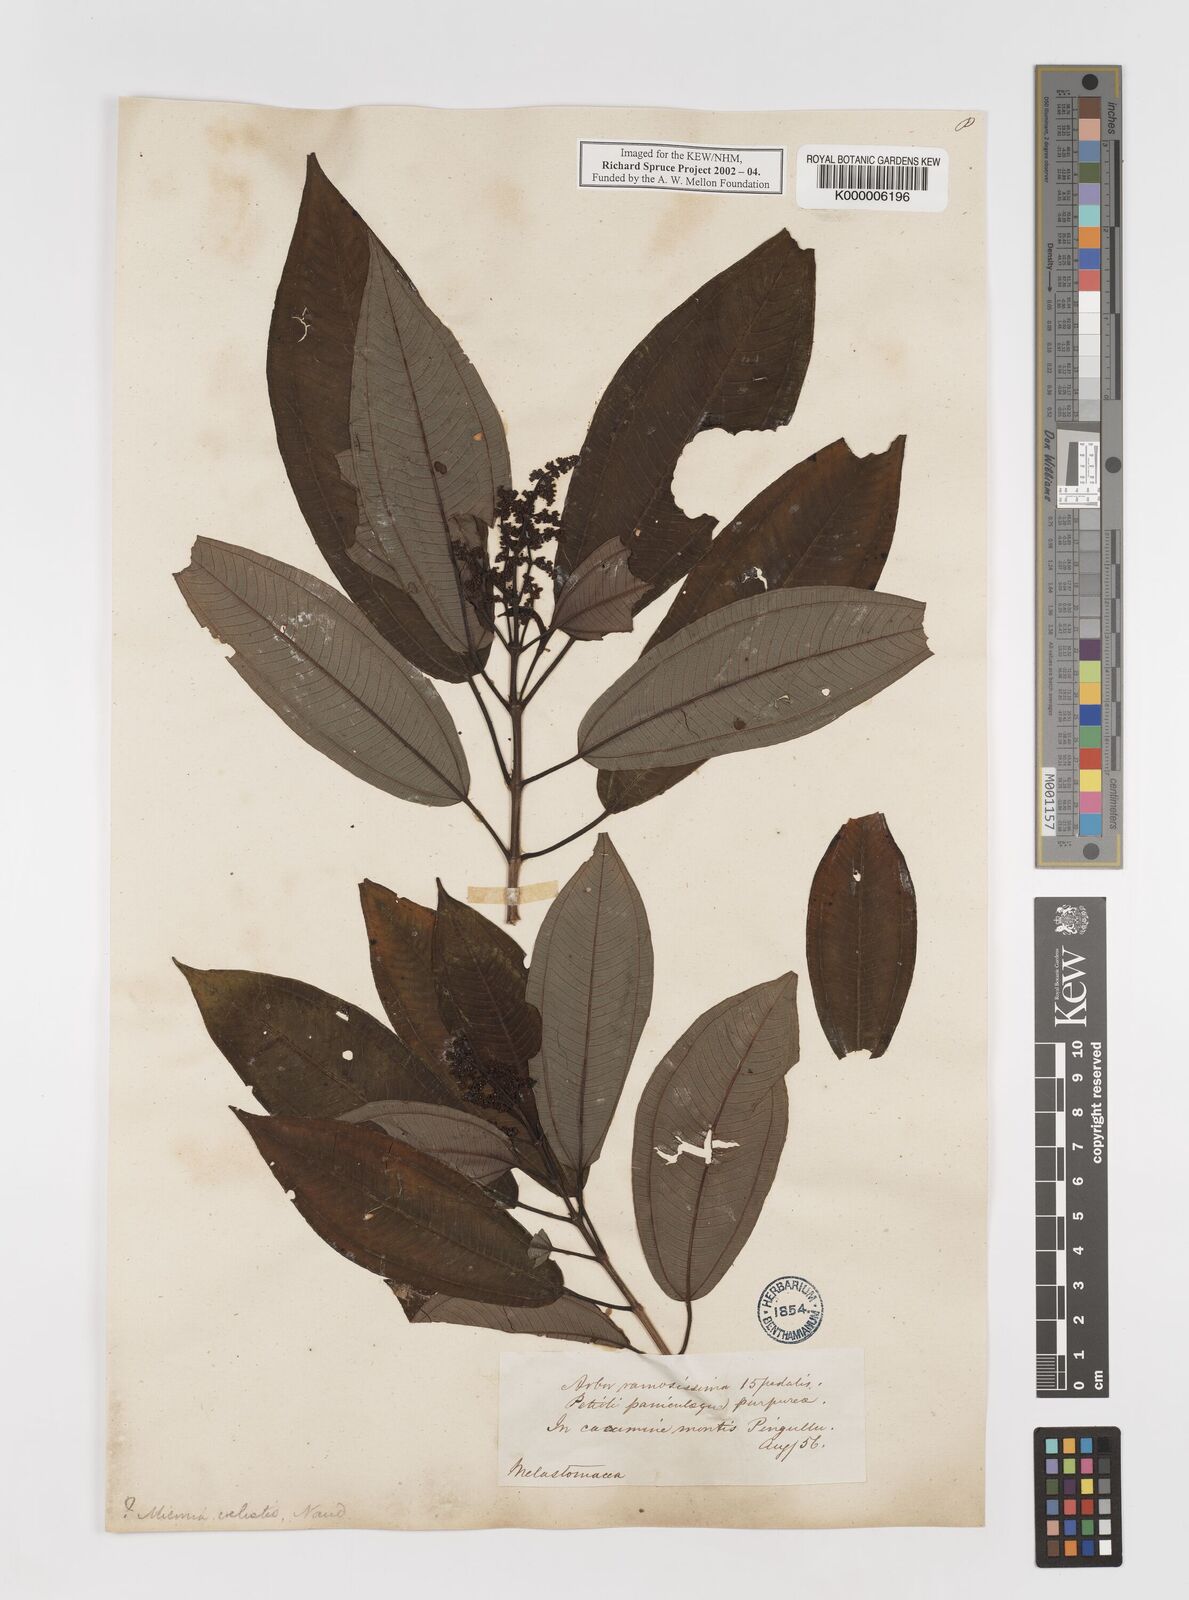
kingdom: Plantae
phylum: Tracheophyta
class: Magnoliopsida
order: Myrtales
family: Melastomataceae
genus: Miconia
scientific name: Miconia coelestis
